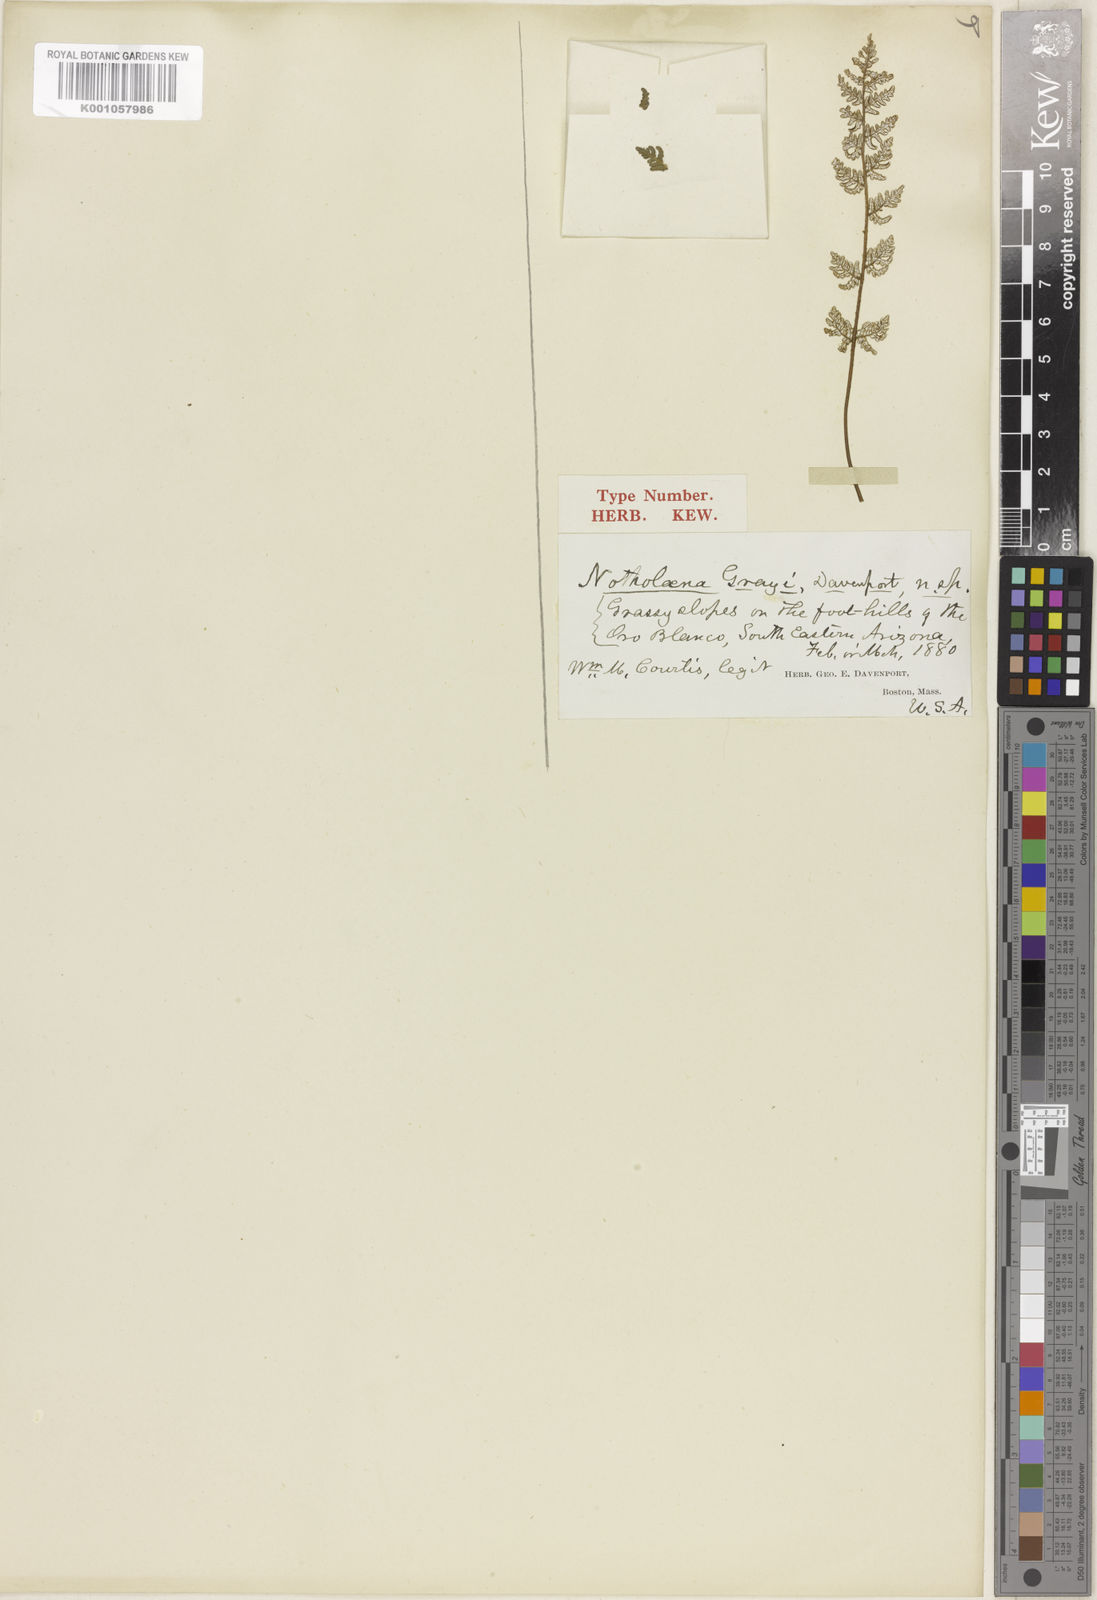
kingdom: Plantae
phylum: Tracheophyta
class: Polypodiopsida
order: Polypodiales
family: Pteridaceae
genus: Notholaena
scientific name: Notholaena grayi
